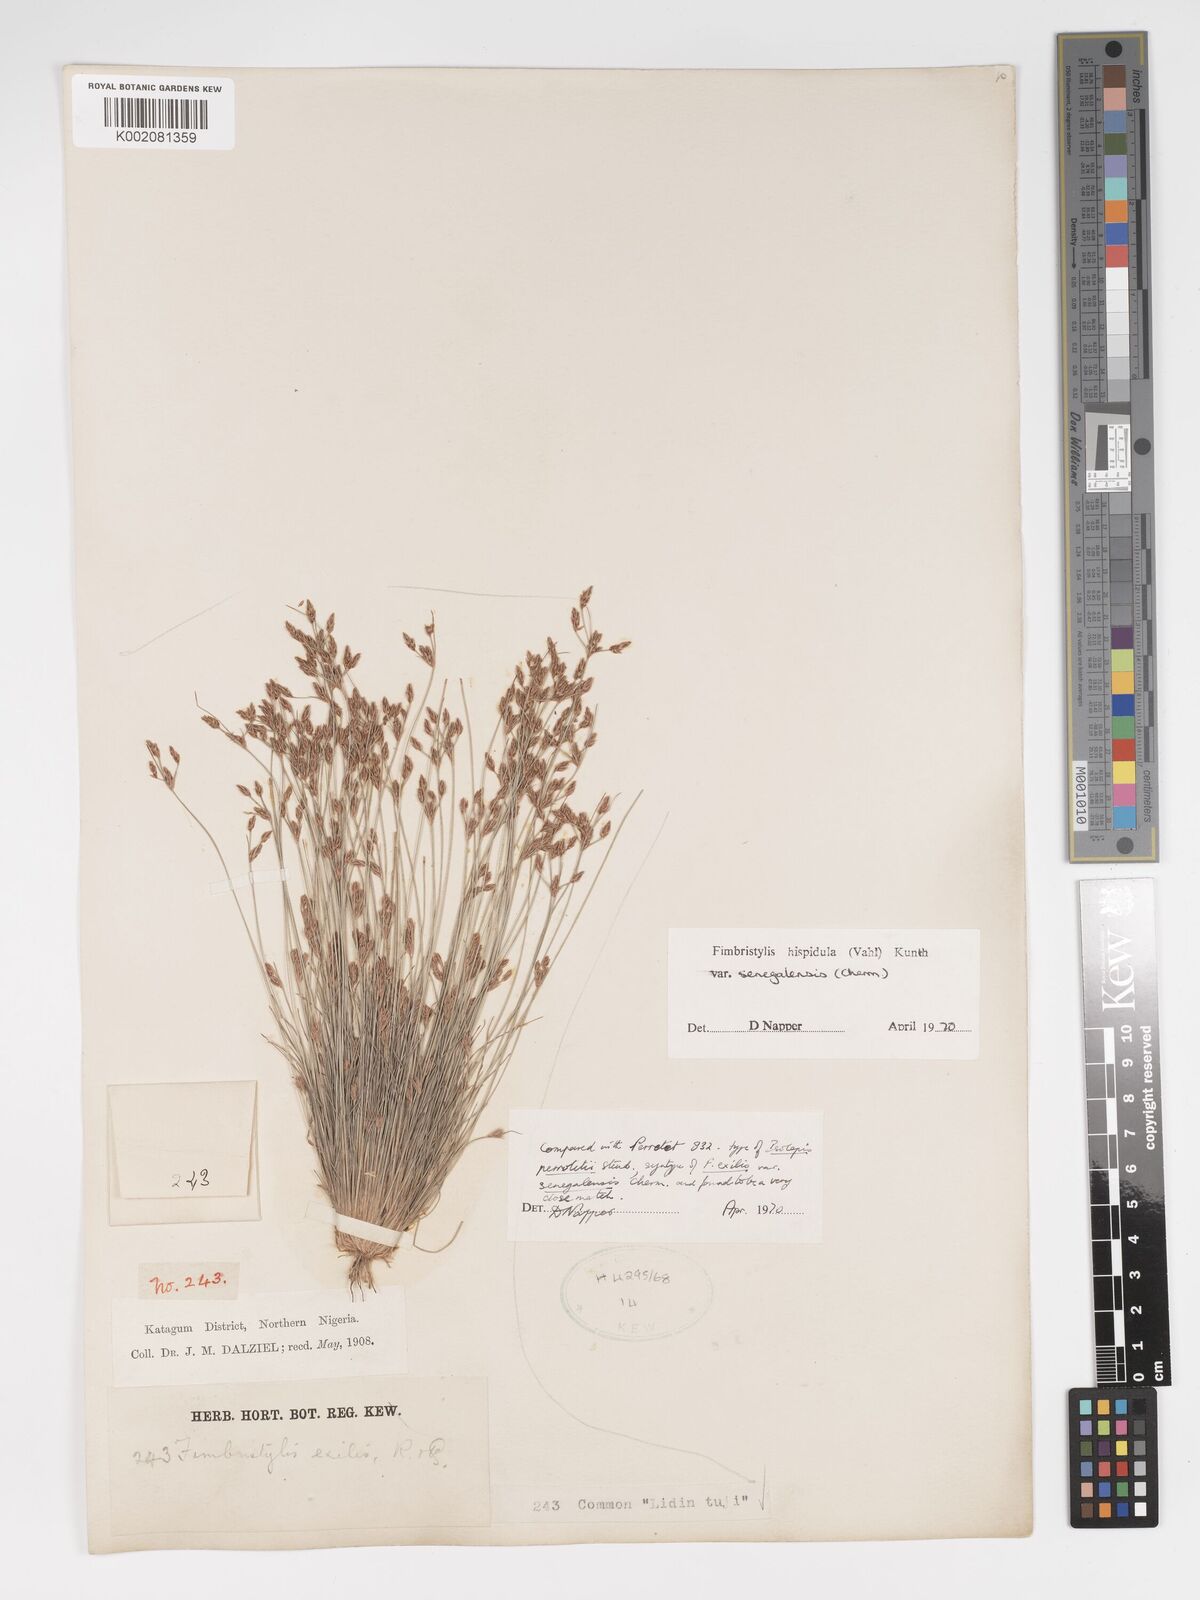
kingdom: Plantae
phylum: Tracheophyta
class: Liliopsida
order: Poales
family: Cyperaceae
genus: Bulbostylis
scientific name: Bulbostylis hispidula
